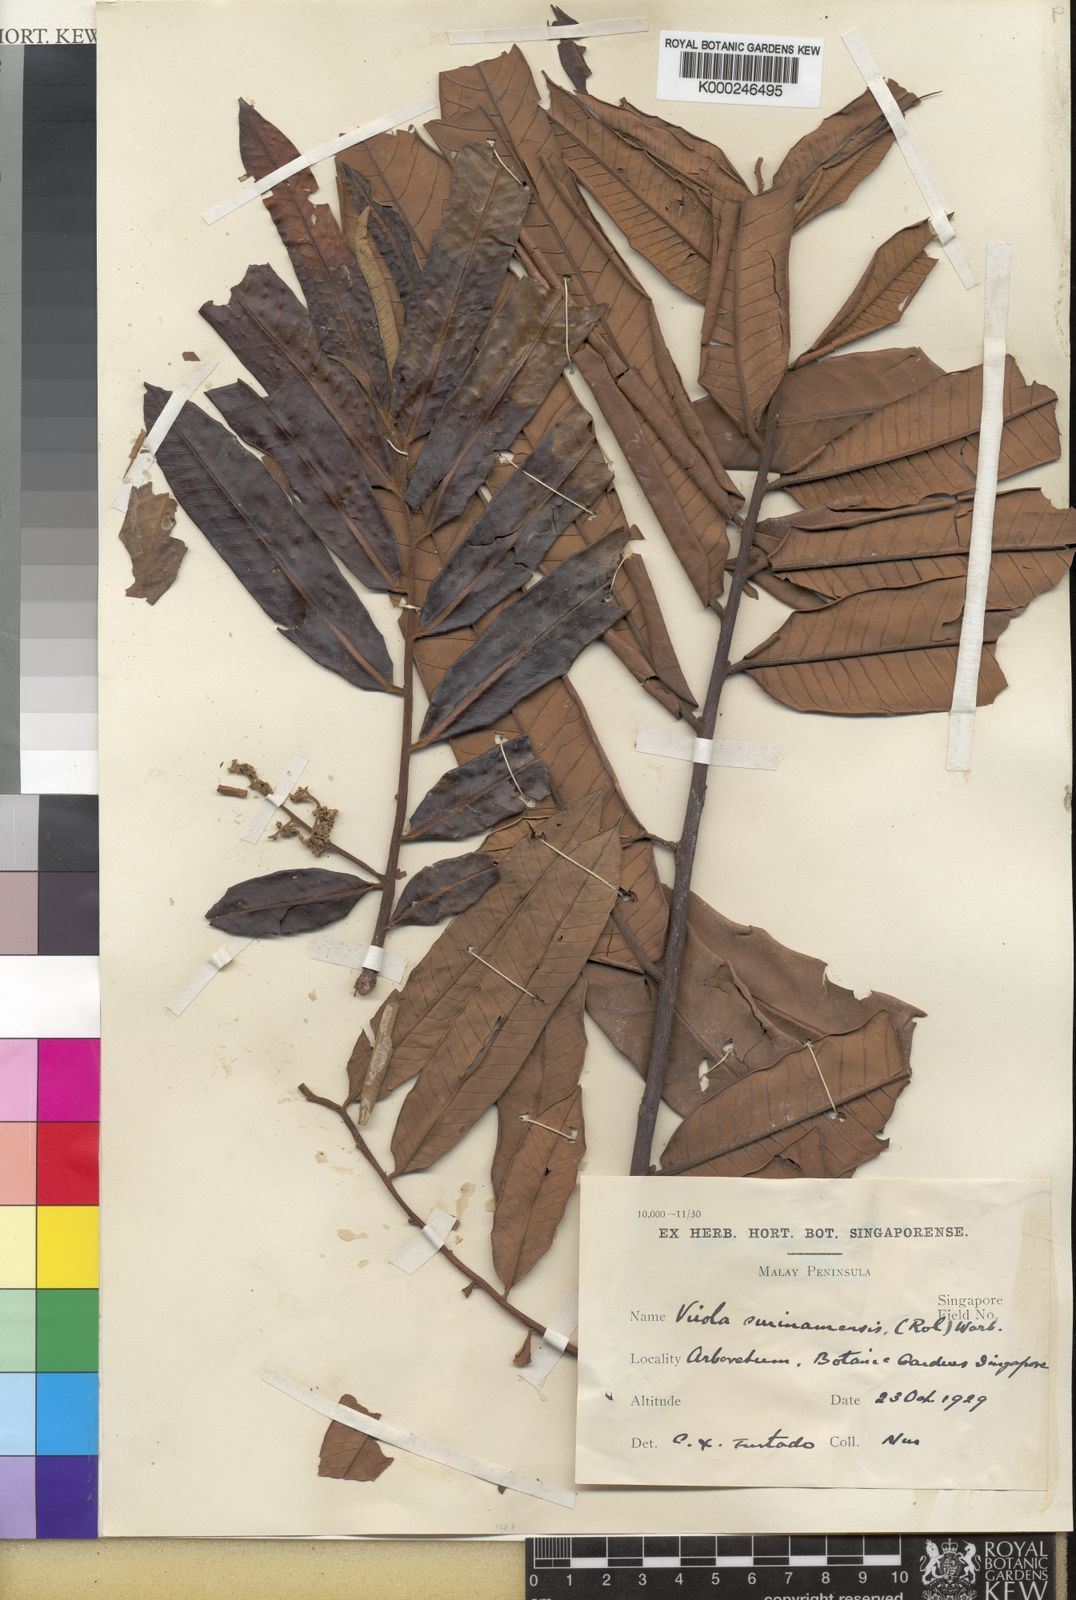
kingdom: Plantae
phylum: Tracheophyta
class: Magnoliopsida
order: Magnoliales
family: Myristicaceae
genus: Virola
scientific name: Virola surinamensis
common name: Baboonwood
